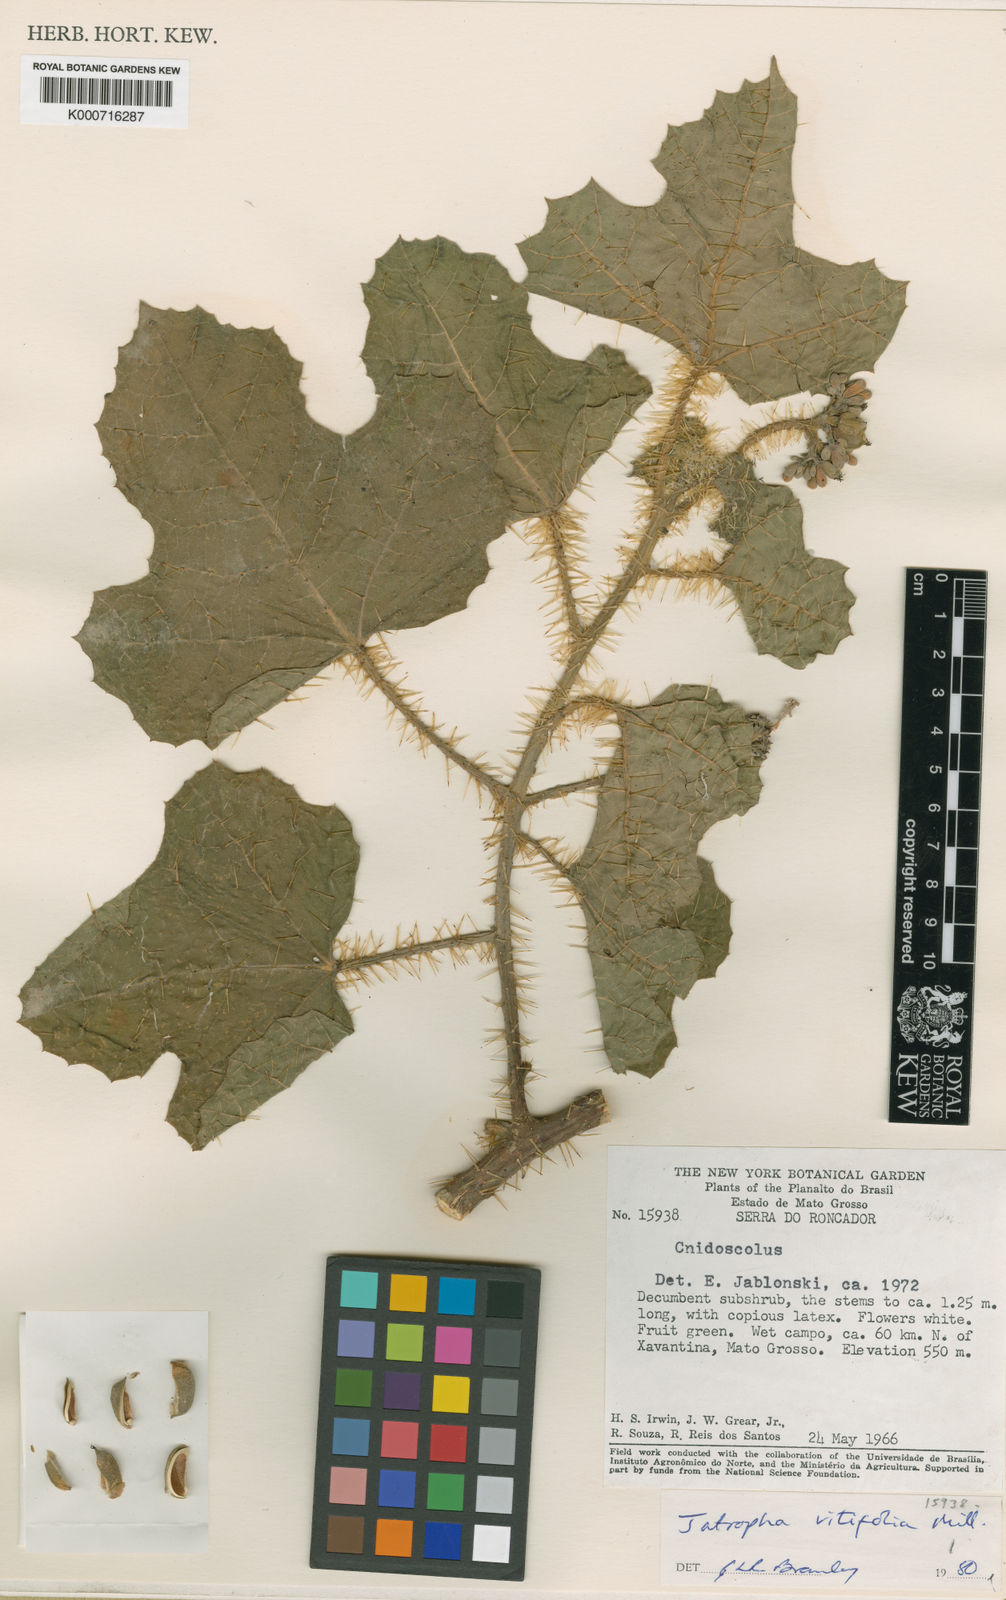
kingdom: Plantae
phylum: Tracheophyta
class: Magnoliopsida
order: Malpighiales
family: Euphorbiaceae
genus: Cnidoscolus
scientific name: Cnidoscolus vitifolius
